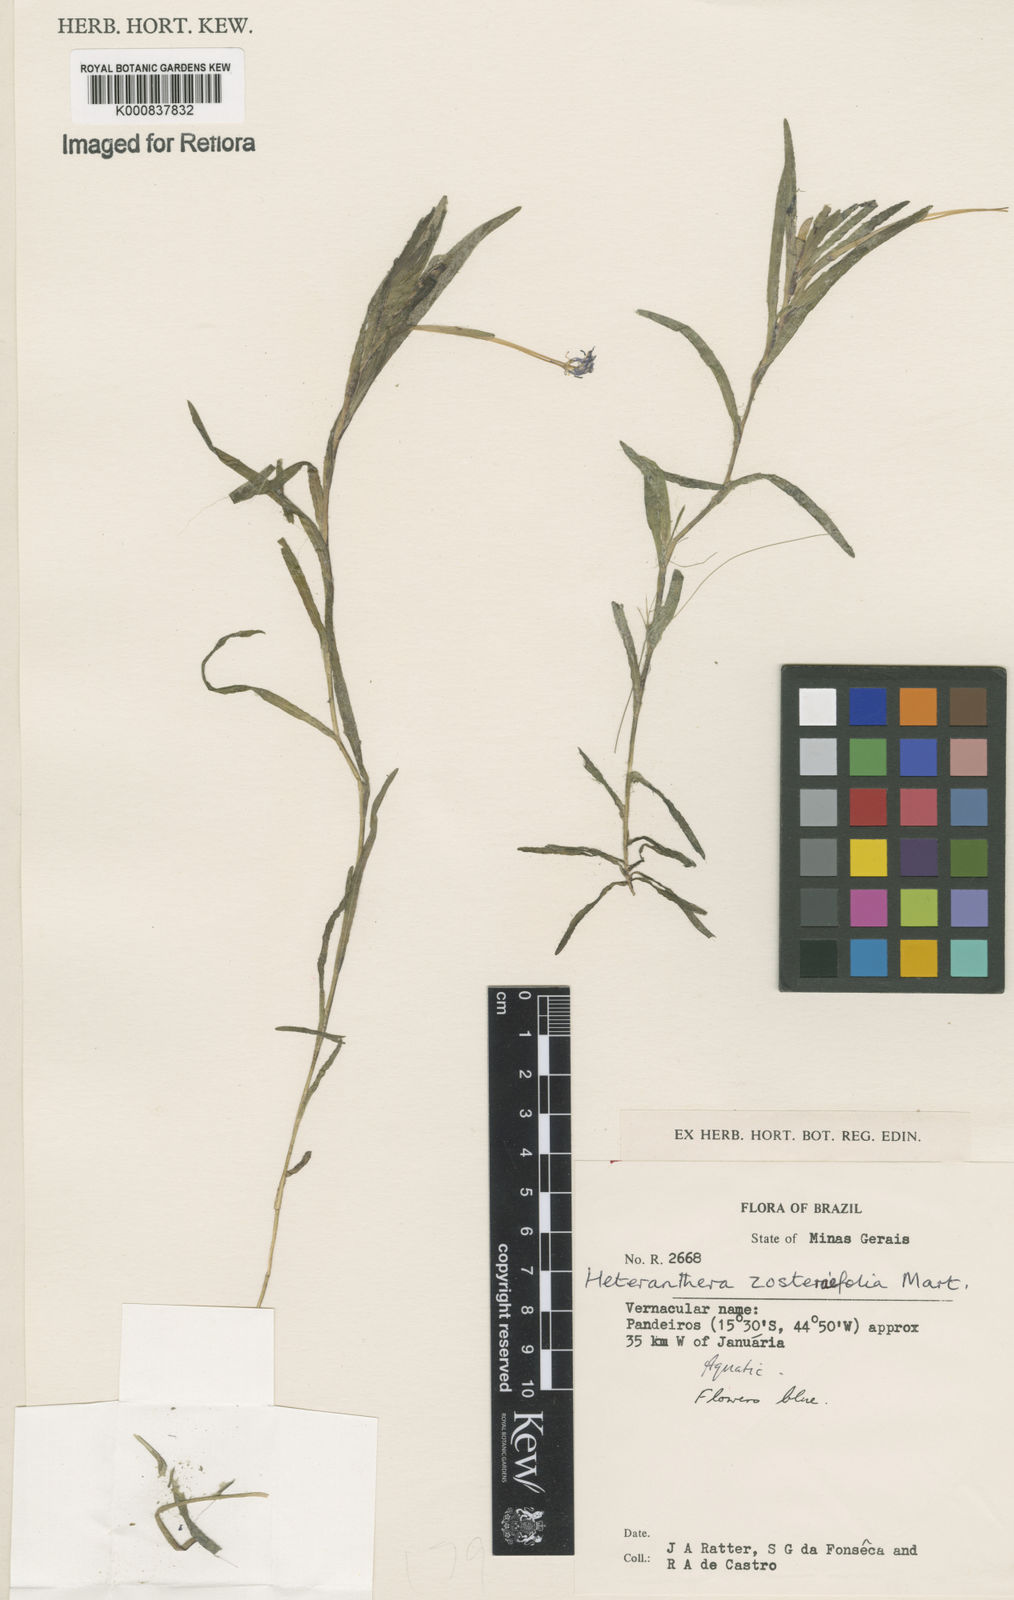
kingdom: Plantae
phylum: Tracheophyta
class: Liliopsida
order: Commelinales
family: Pontederiaceae
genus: Heteranthera
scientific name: Heteranthera zosterifolia
